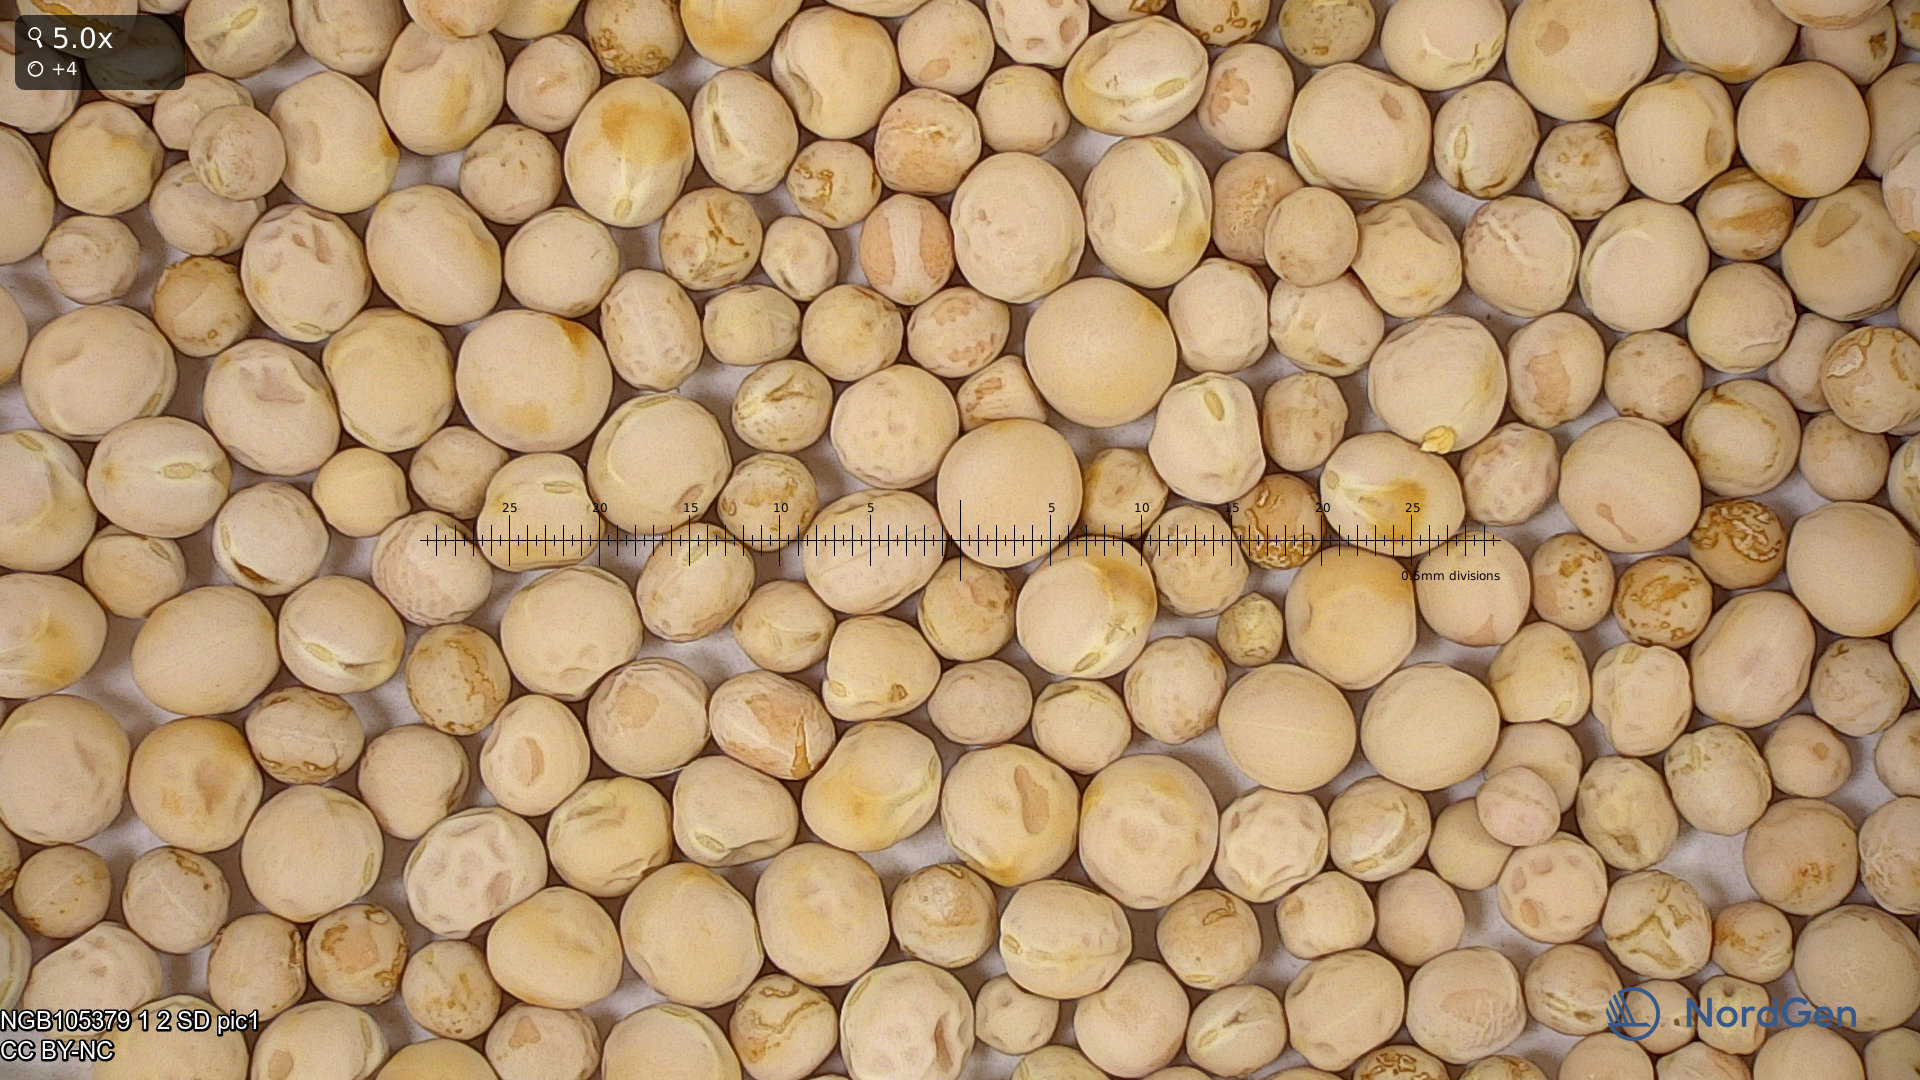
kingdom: Plantae
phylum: Tracheophyta
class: Magnoliopsida
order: Fabales
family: Fabaceae
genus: Lathyrus
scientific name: Lathyrus oleraceus
